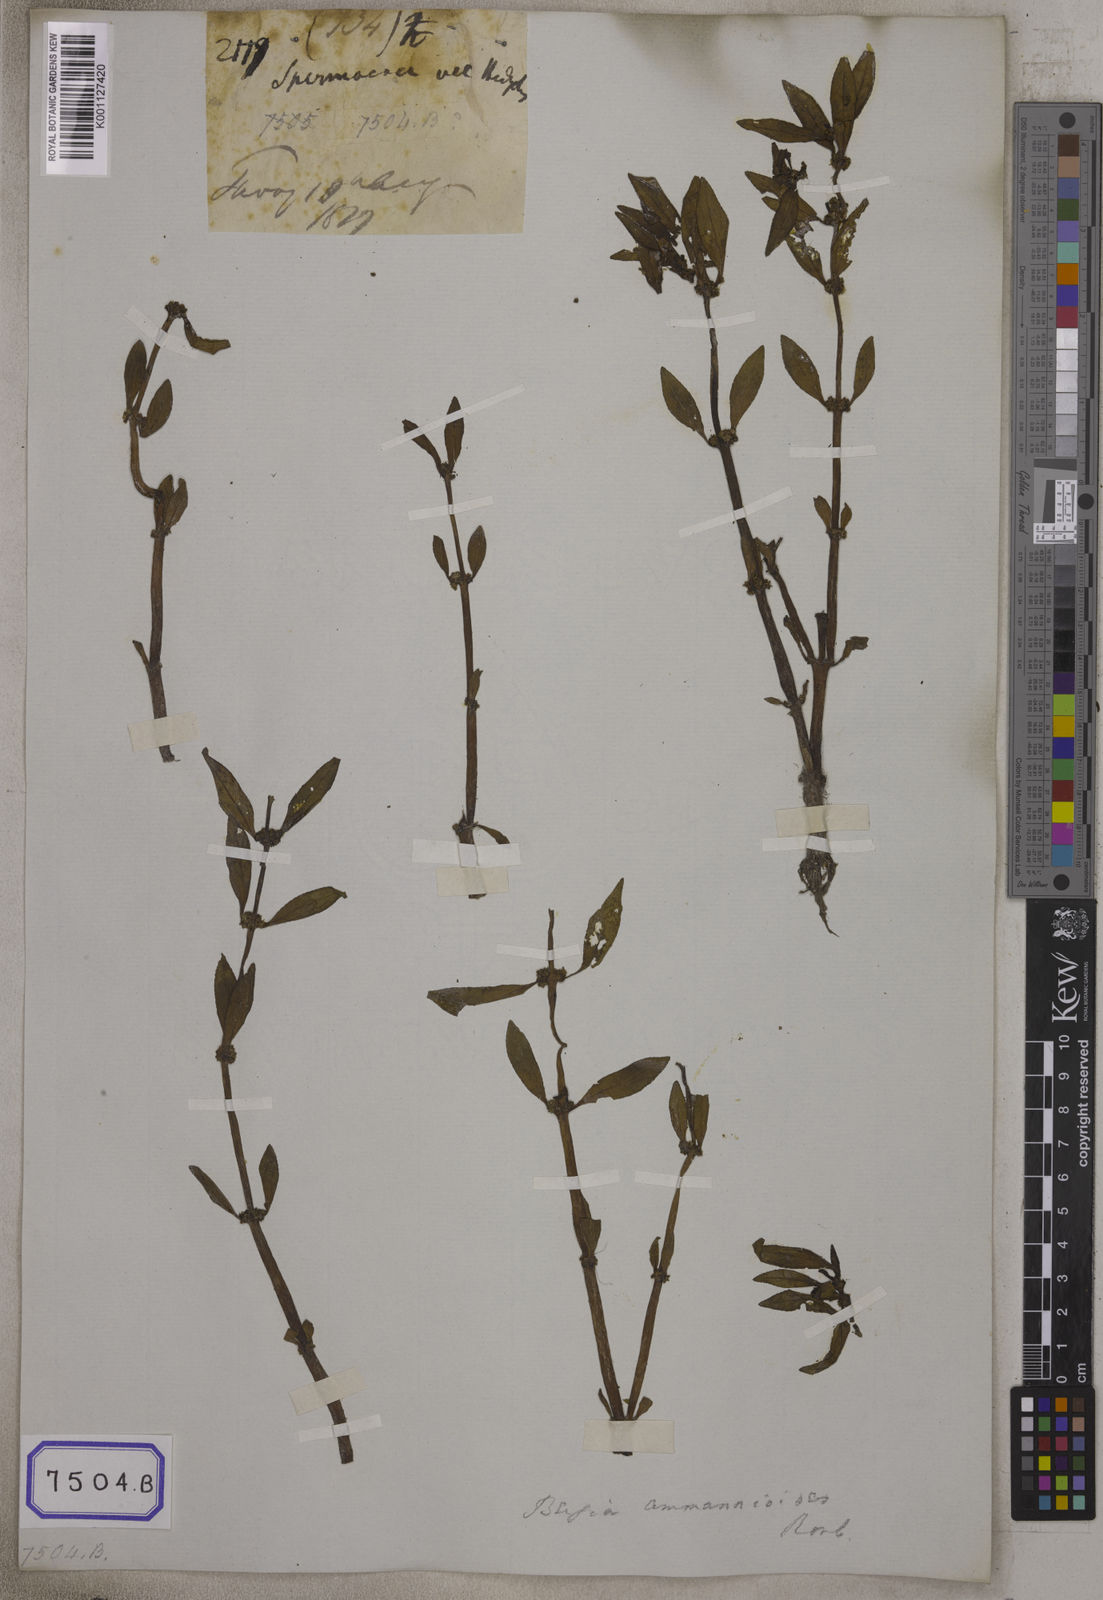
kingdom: Plantae
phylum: Tracheophyta
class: Magnoliopsida
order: Malpighiales
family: Elatinaceae
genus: Bergia
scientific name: Bergia ammannioides
